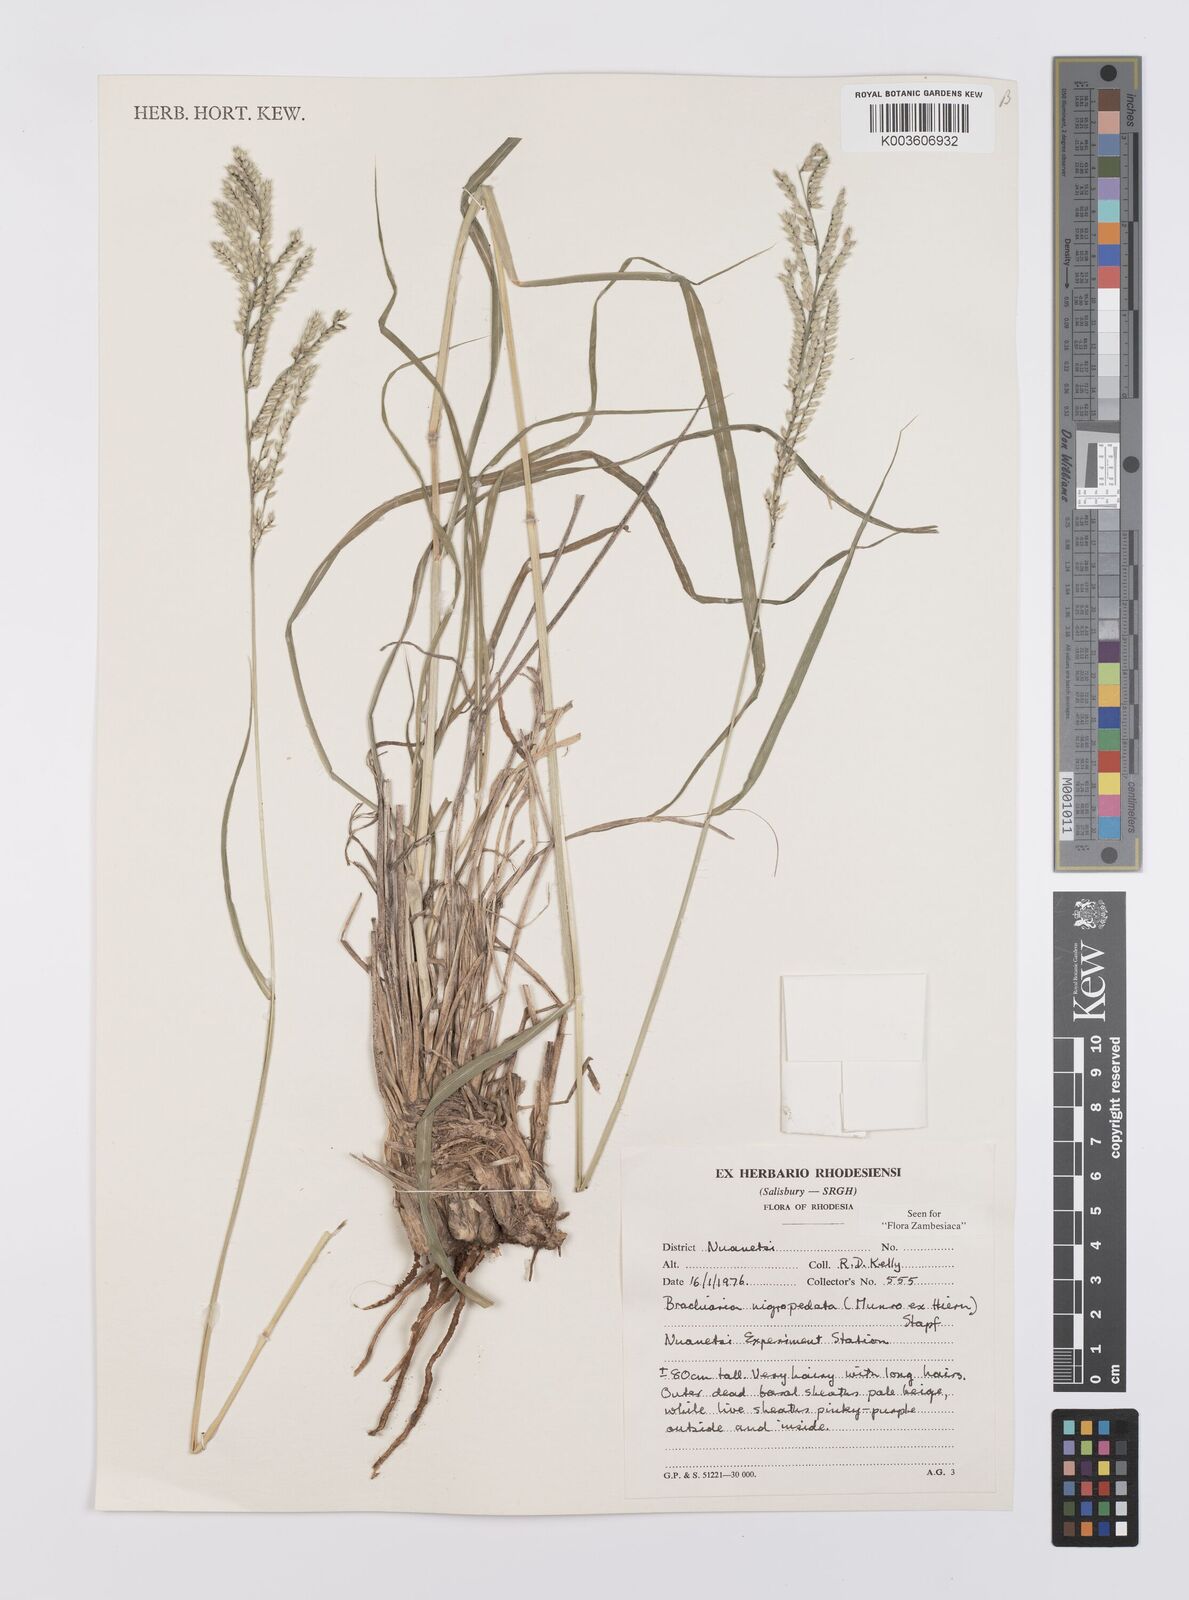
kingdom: Plantae
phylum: Tracheophyta
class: Liliopsida
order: Poales
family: Poaceae
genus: Urochloa
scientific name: Urochloa nigropedata
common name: Spotted signal grass
